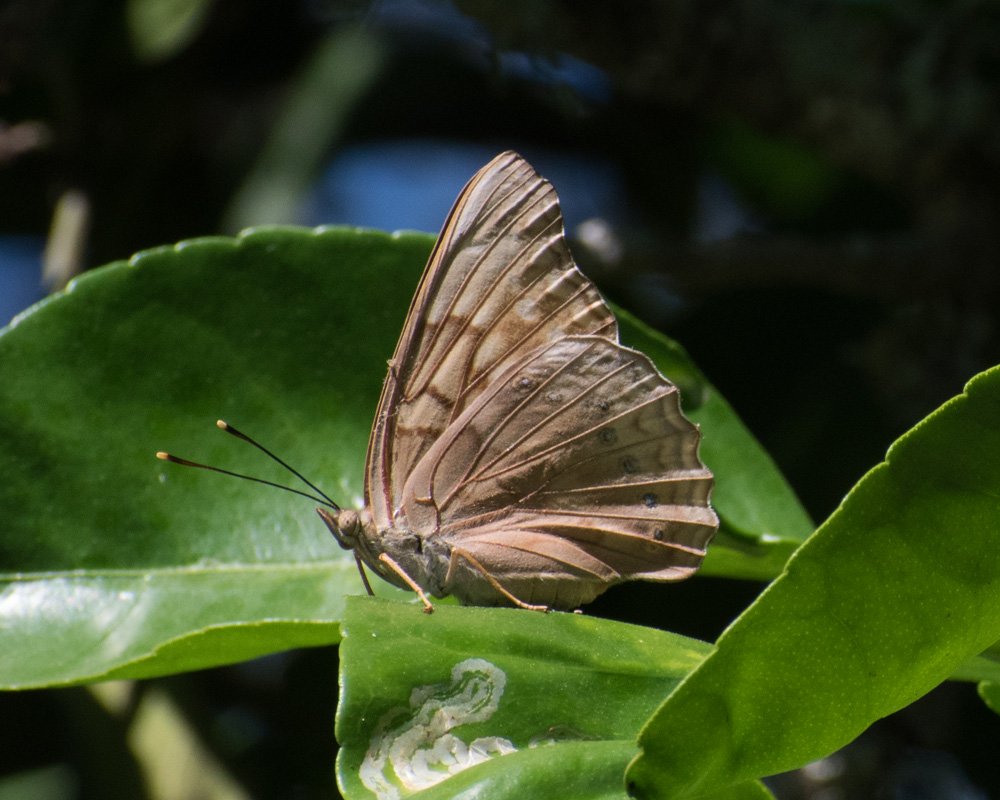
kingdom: Animalia
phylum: Arthropoda
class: Insecta
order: Lepidoptera
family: Nymphalidae
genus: Asterocampa
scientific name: Asterocampa clyton
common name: Tawny Emperor
